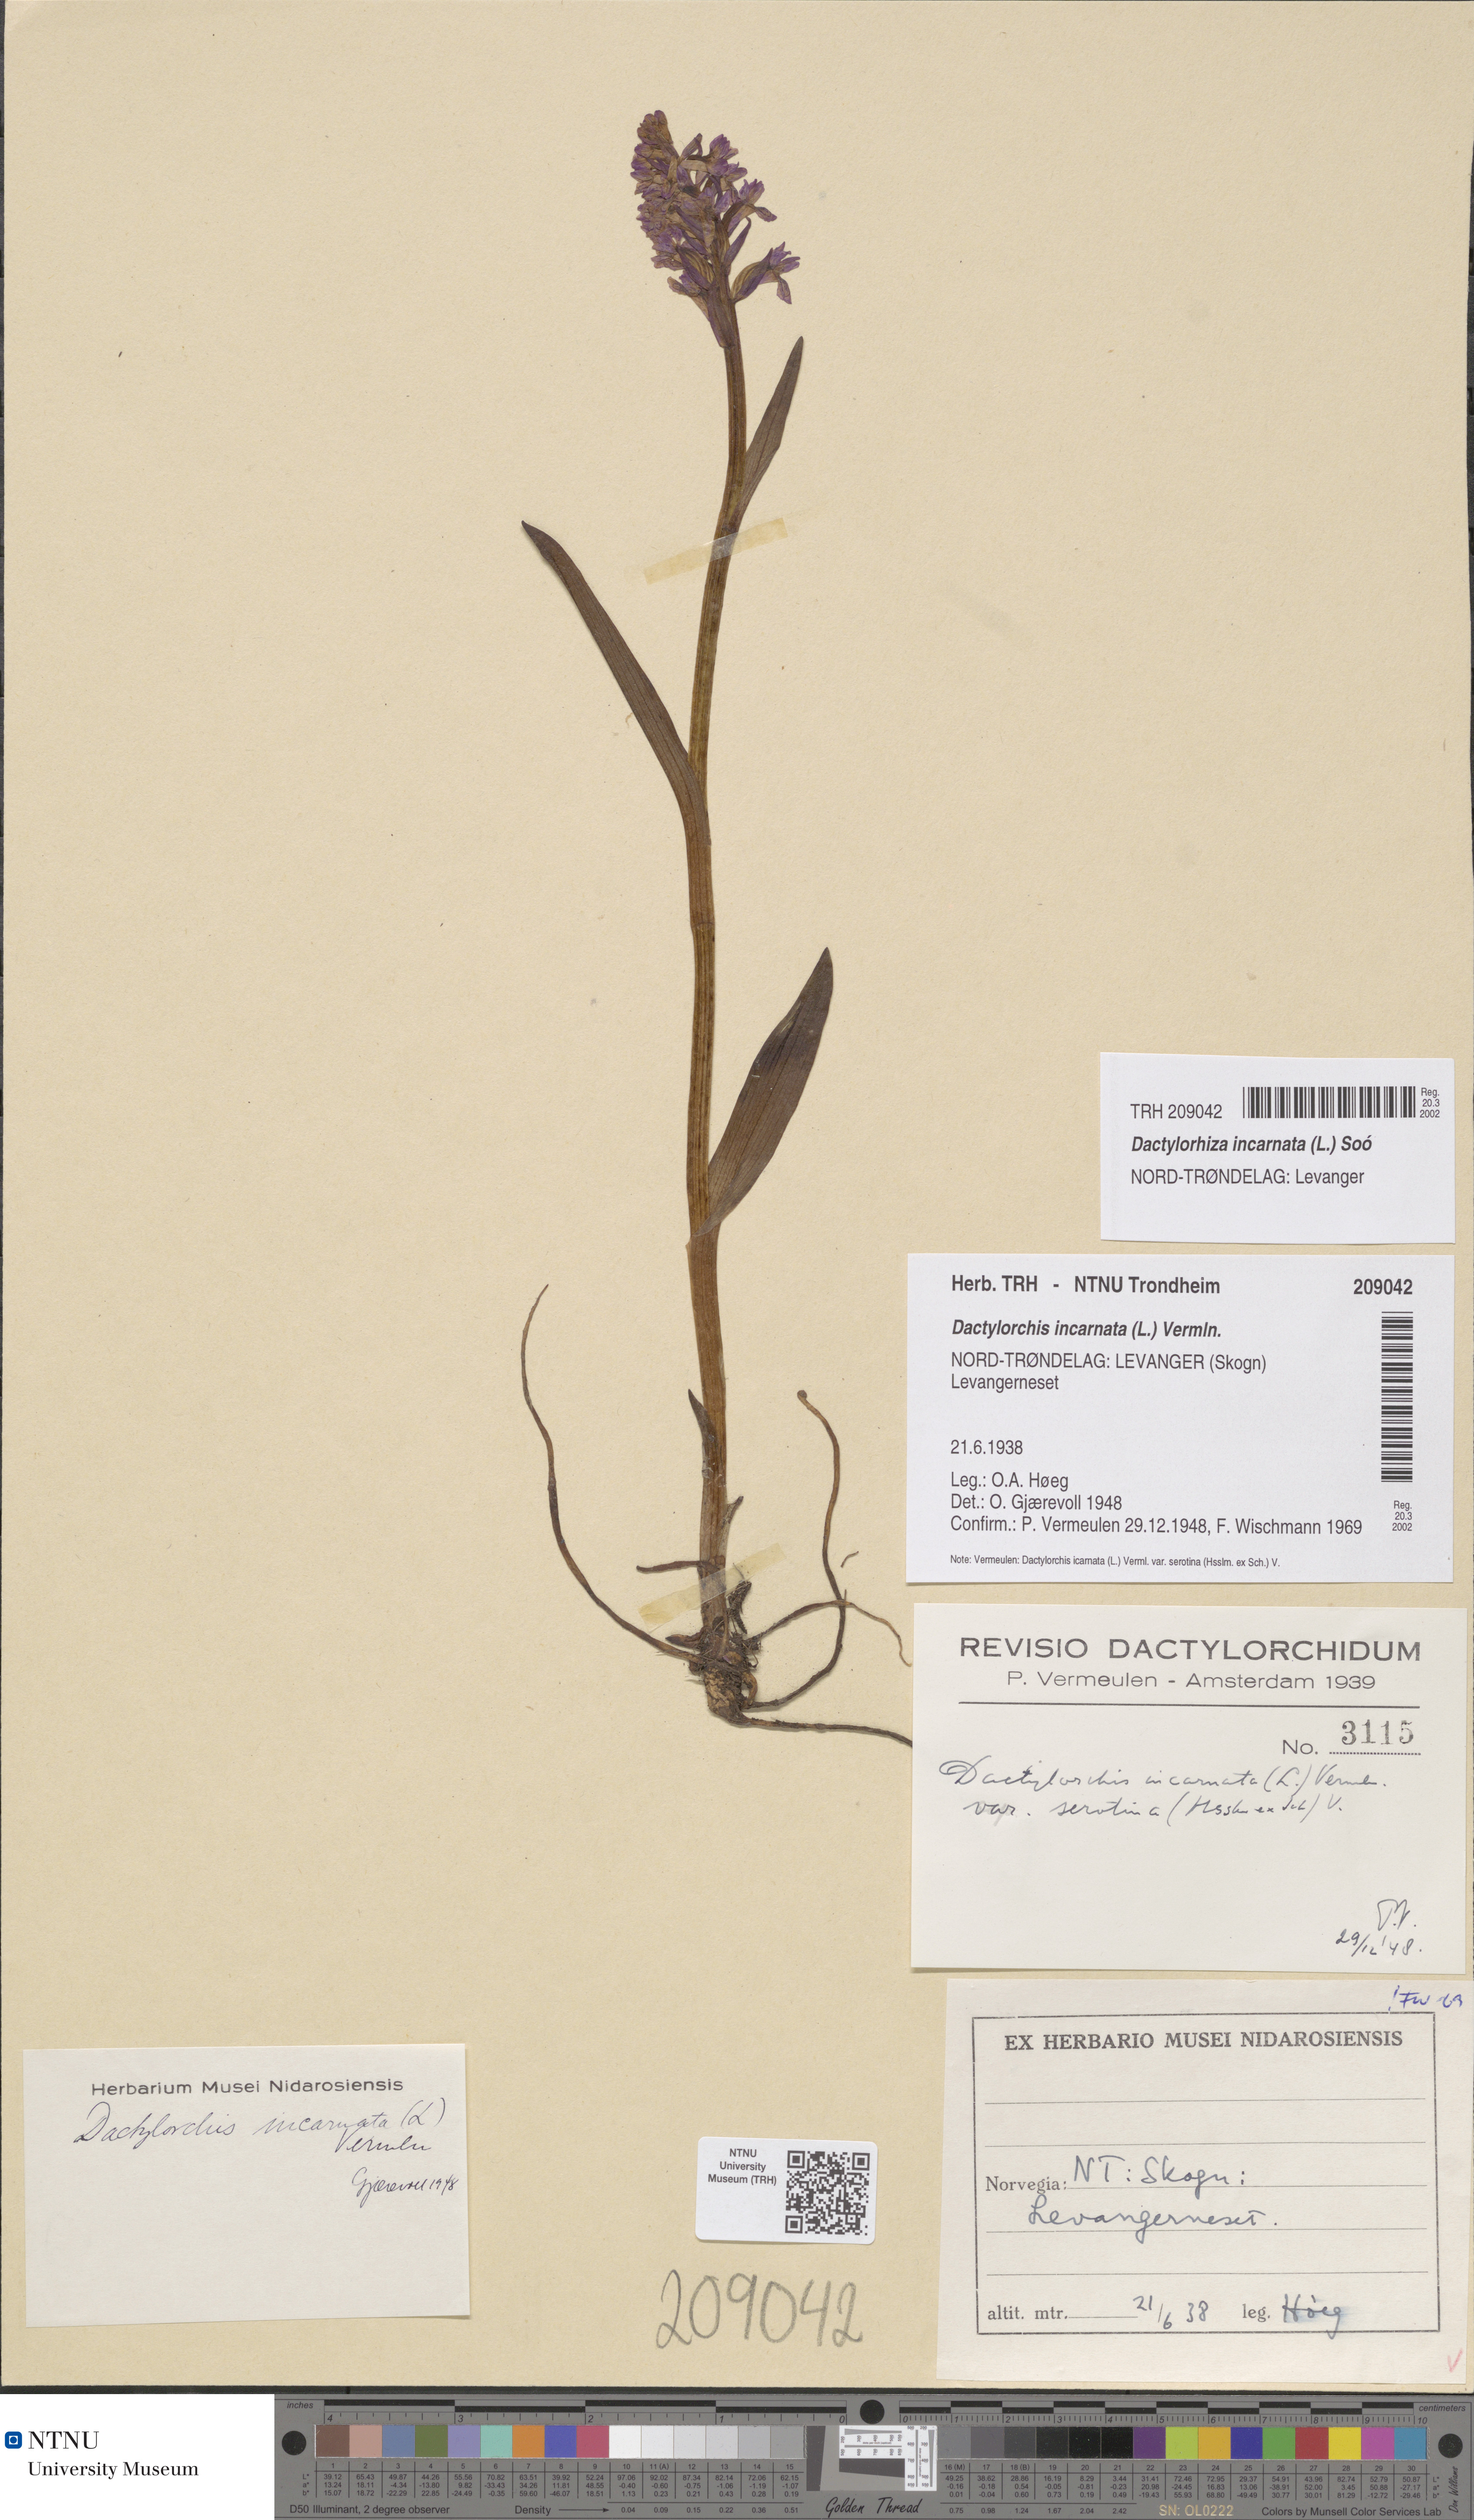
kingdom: Plantae
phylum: Tracheophyta
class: Liliopsida
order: Asparagales
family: Orchidaceae
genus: Dactylorhiza
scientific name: Dactylorhiza incarnata
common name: Early marsh-orchid
